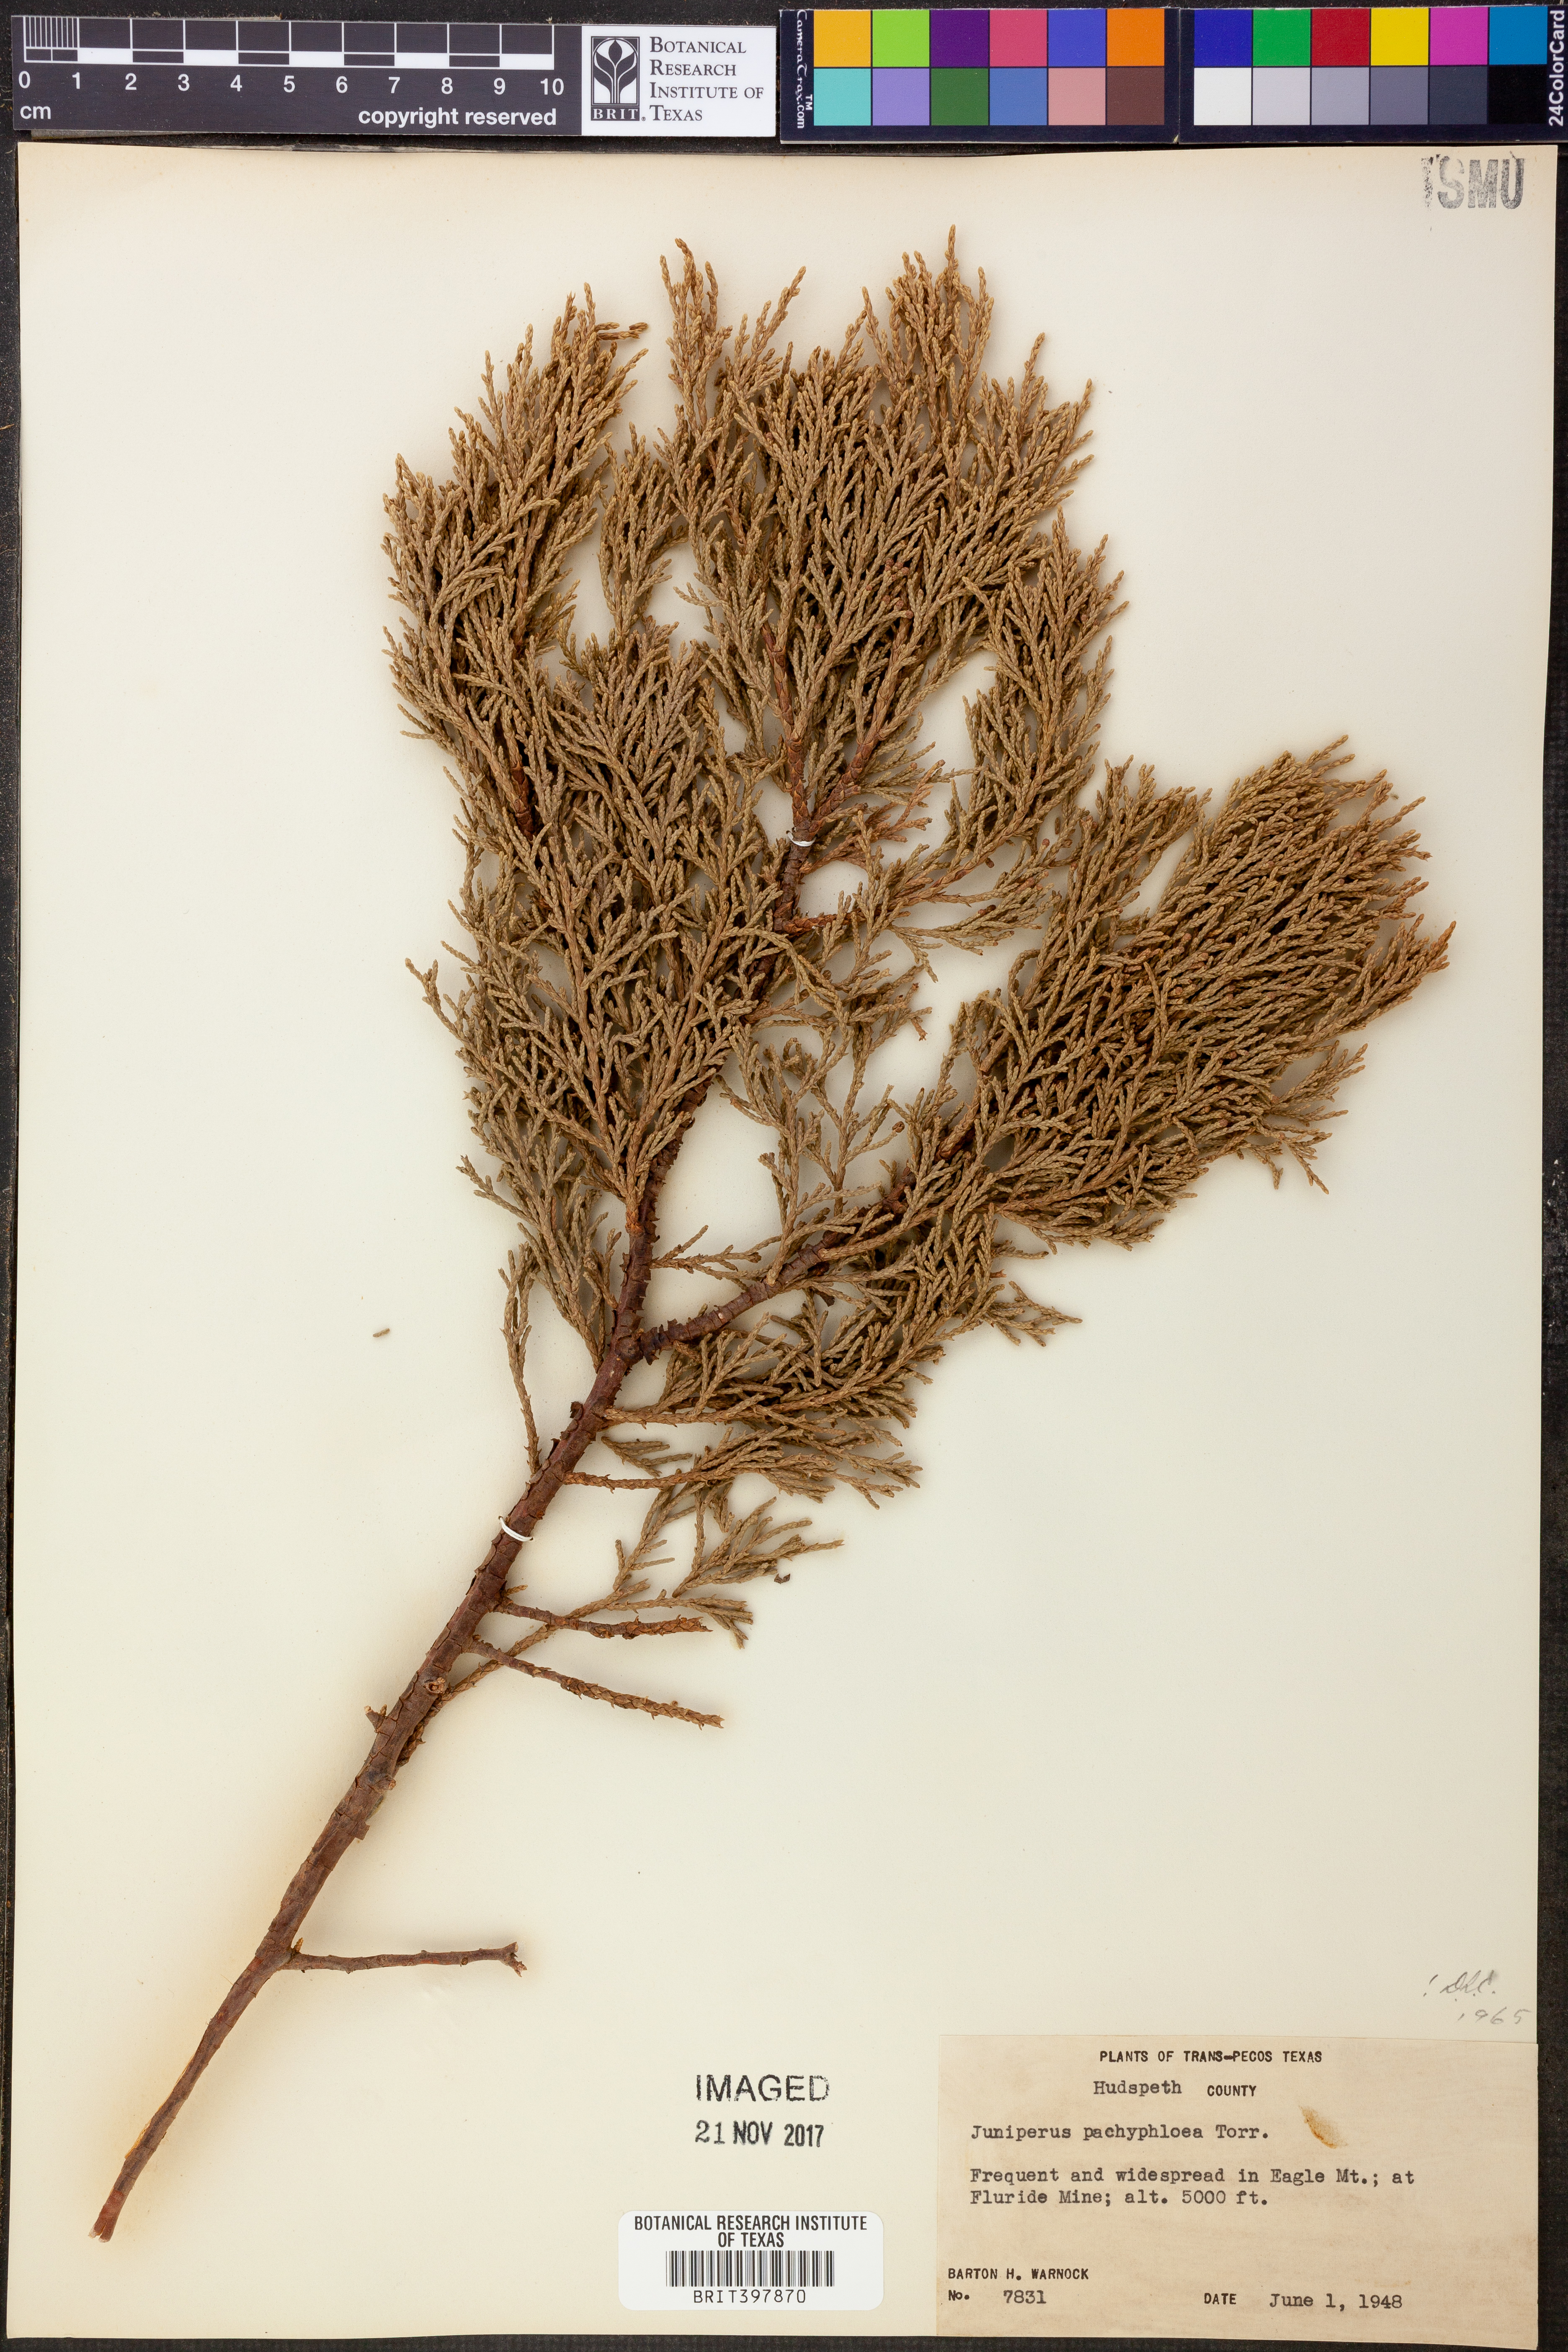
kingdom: Plantae
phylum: Tracheophyta
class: Pinopsida
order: Pinales
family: Cupressaceae
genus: Juniperus
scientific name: Juniperus deppeana
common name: Alligator juniper
